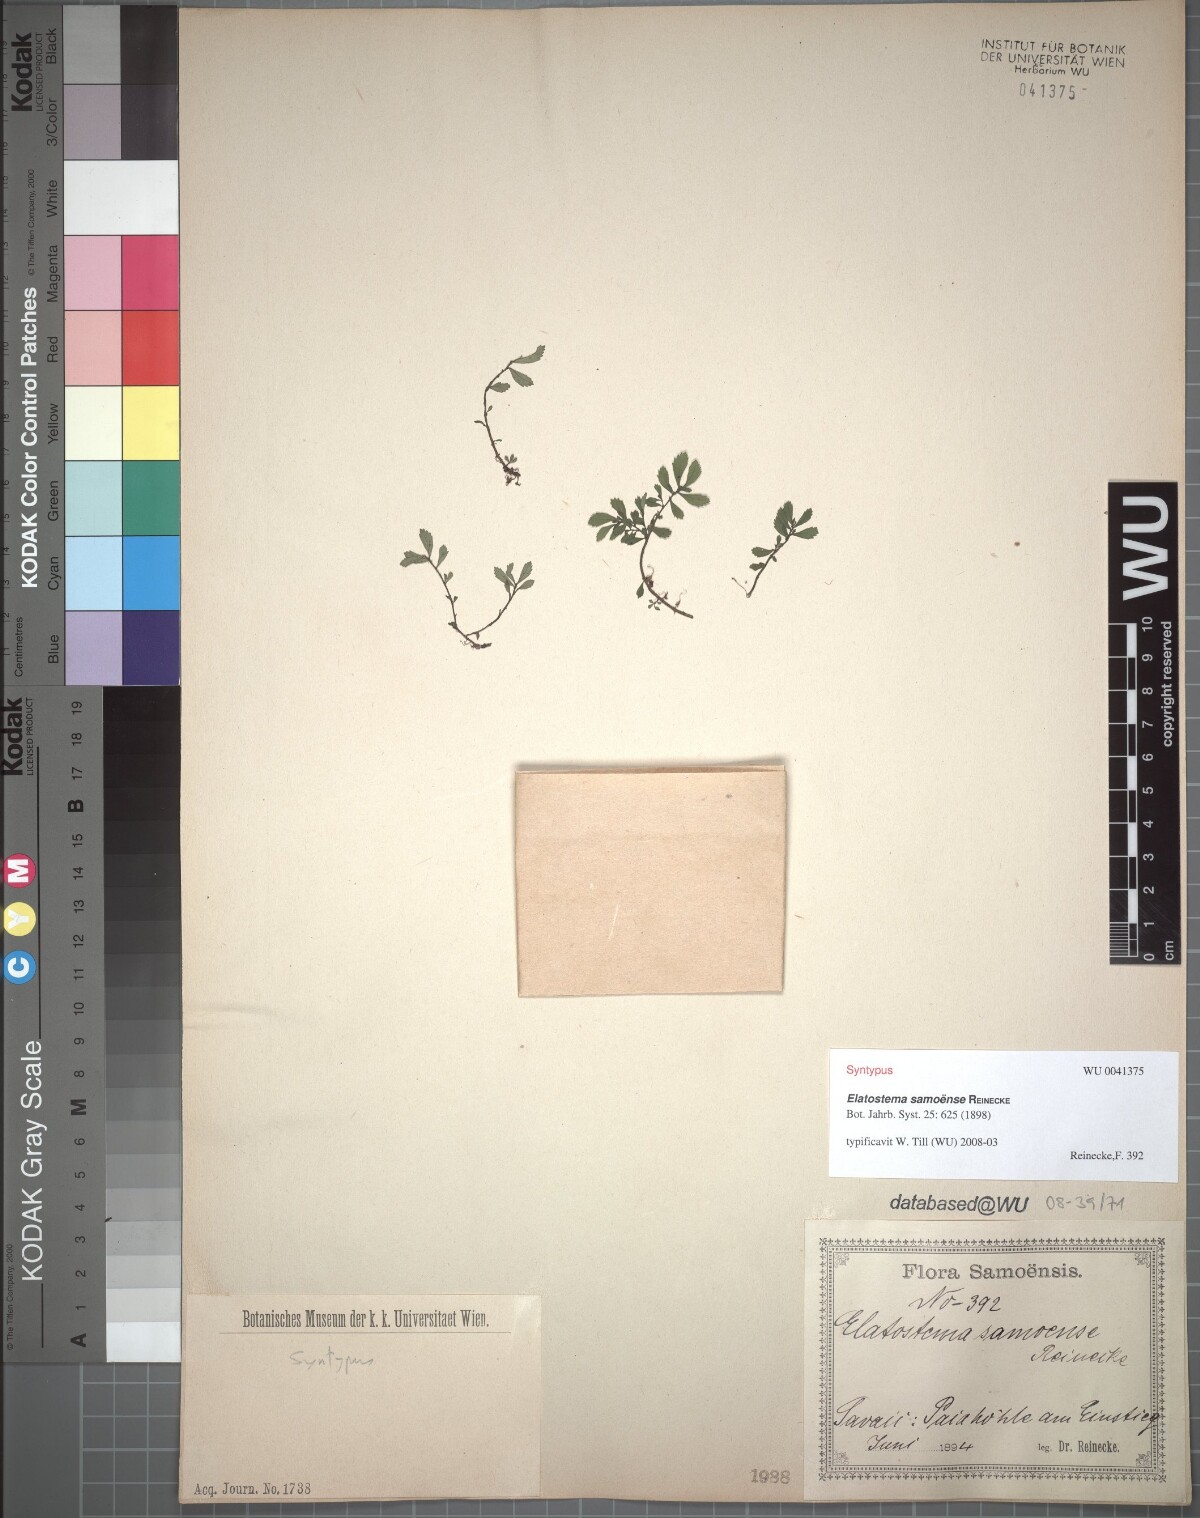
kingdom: Plantae
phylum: Tracheophyta
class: Magnoliopsida
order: Rosales
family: Urticaceae
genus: Elatostema
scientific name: Elatostema samoense
